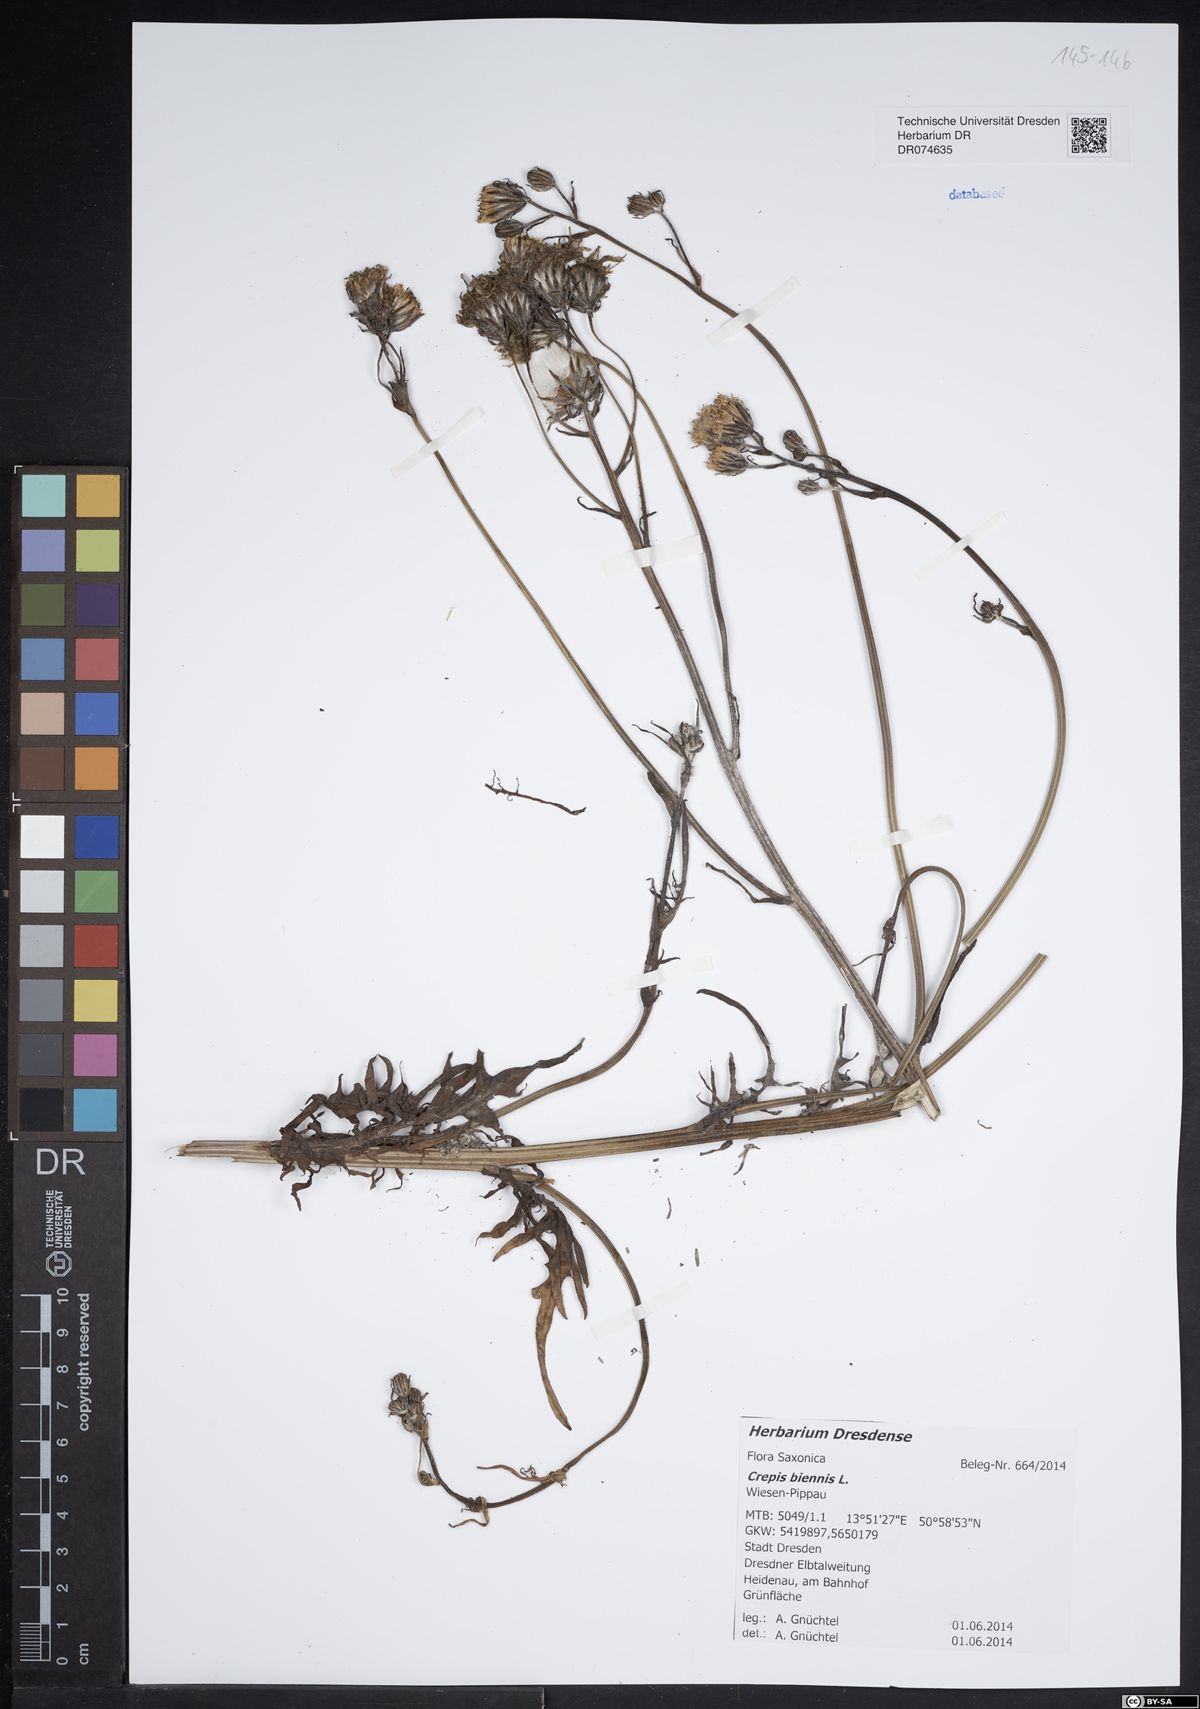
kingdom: Plantae
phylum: Tracheophyta
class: Magnoliopsida
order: Asterales
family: Asteraceae
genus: Crepis
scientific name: Crepis biennis
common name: Rough hawk's-beard
